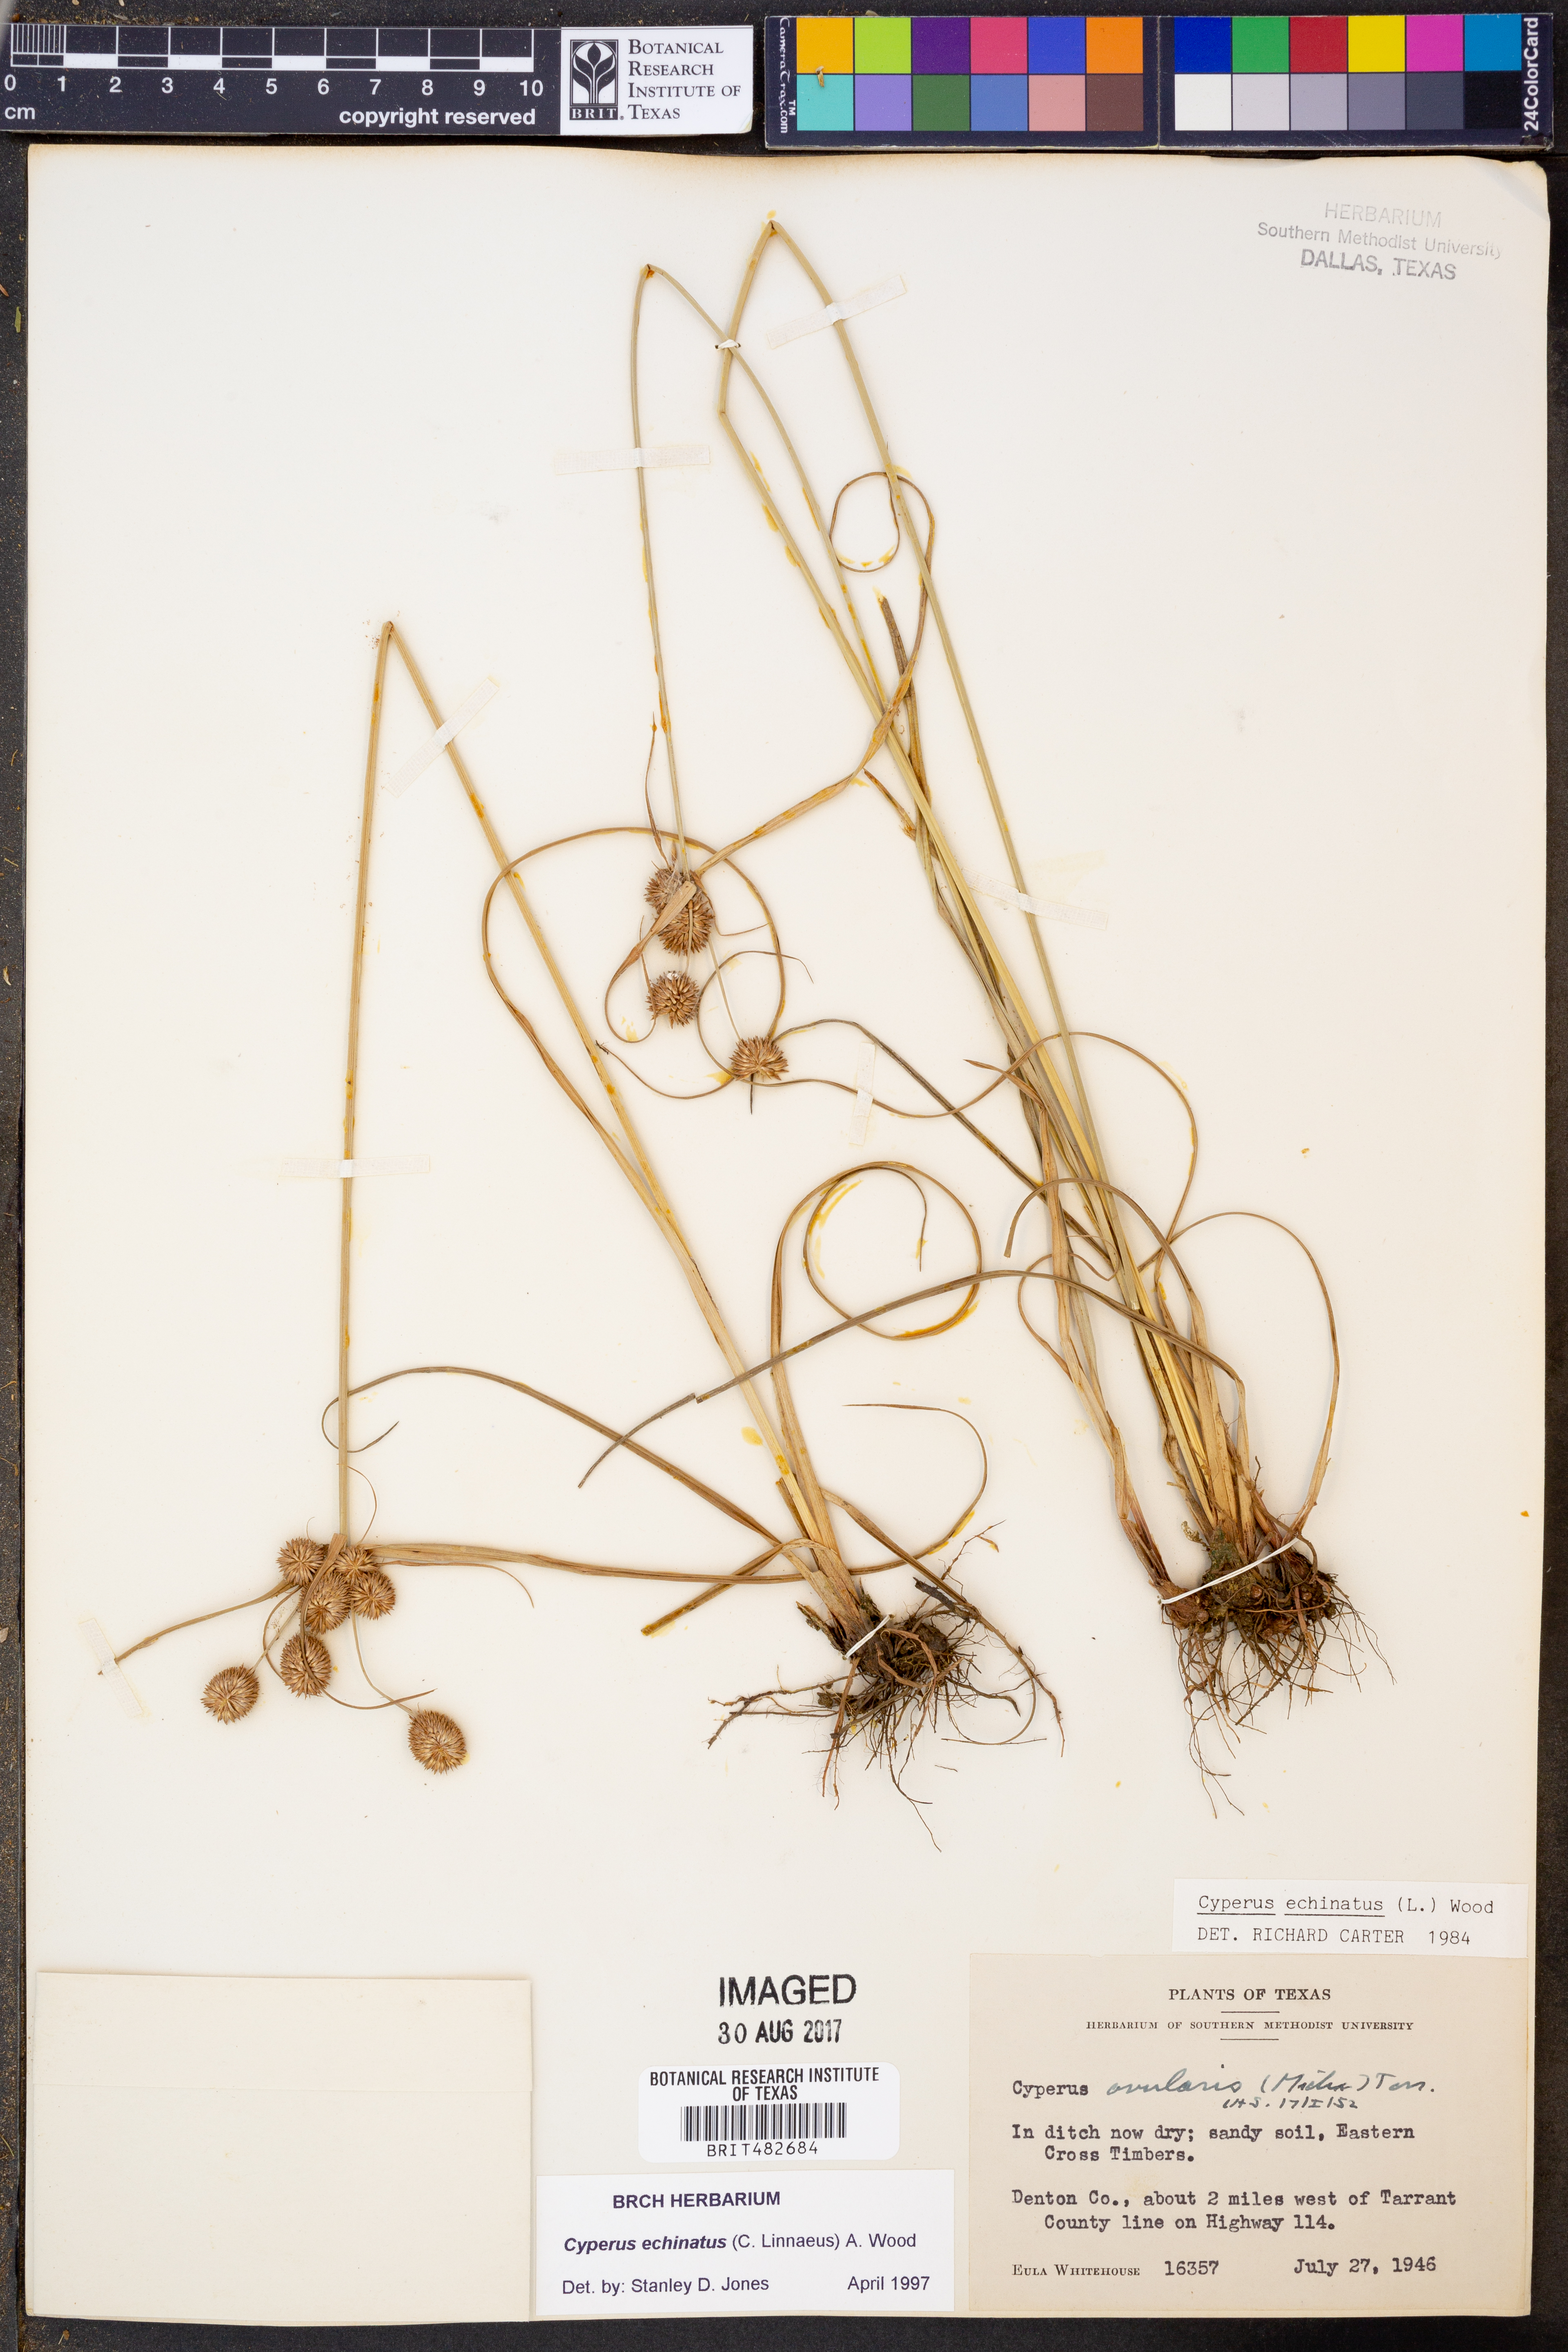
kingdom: Plantae
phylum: Tracheophyta
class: Liliopsida
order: Poales
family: Cyperaceae
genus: Cyperus
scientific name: Cyperus echinatus
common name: Teasel sedge
